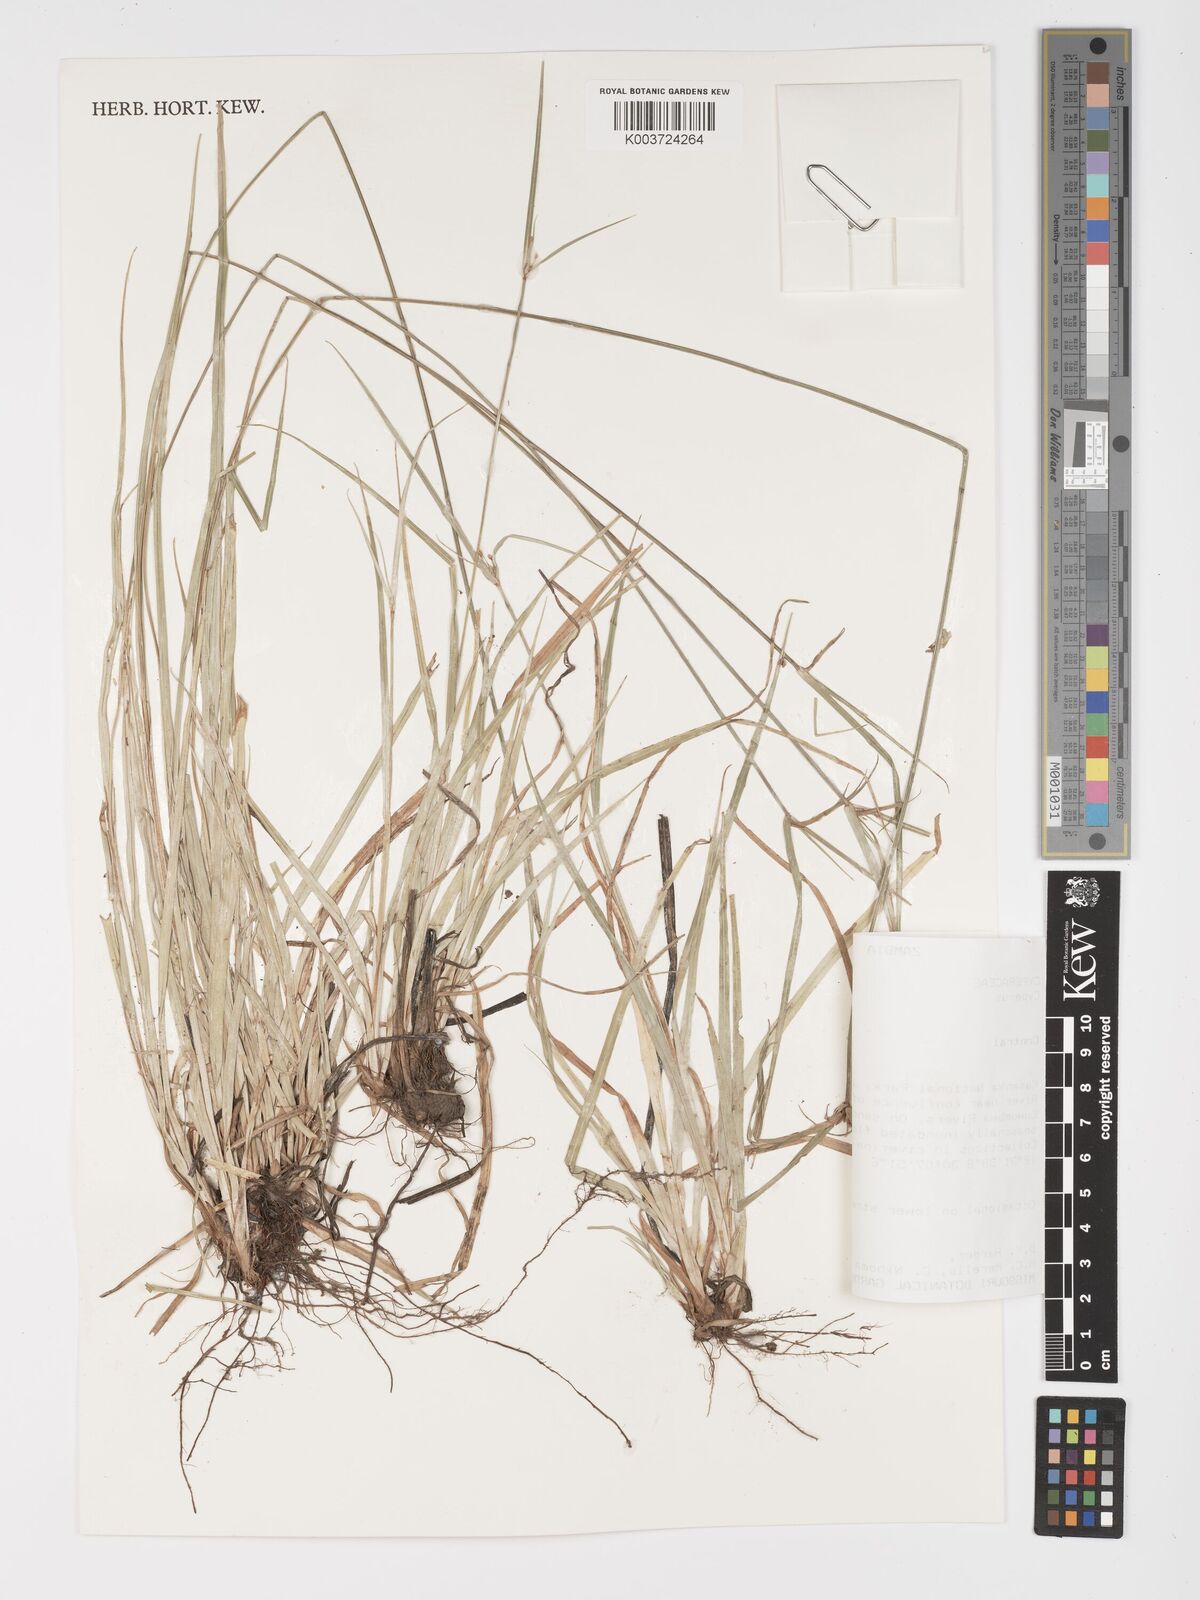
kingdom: Plantae
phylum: Tracheophyta
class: Liliopsida
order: Poales
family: Cyperaceae
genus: Cyperus
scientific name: Cyperus
